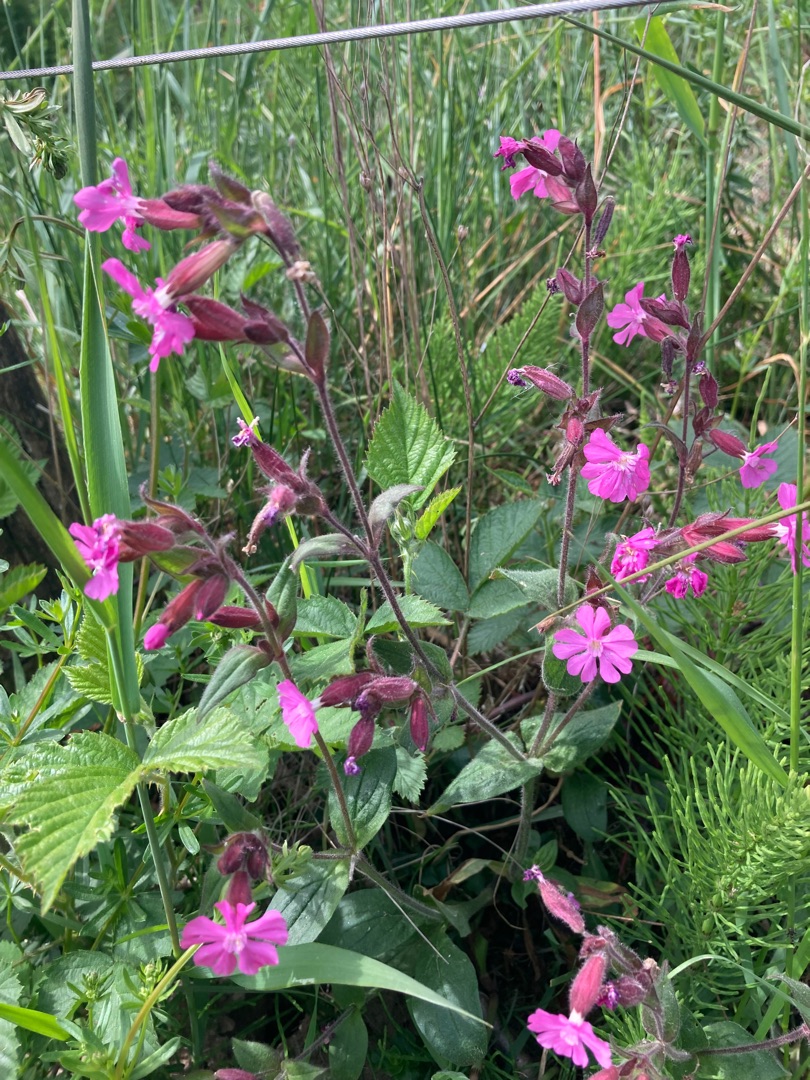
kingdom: Plantae
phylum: Tracheophyta
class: Magnoliopsida
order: Caryophyllales
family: Caryophyllaceae
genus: Silene
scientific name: Silene dioica
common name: Dagpragtstjerne
